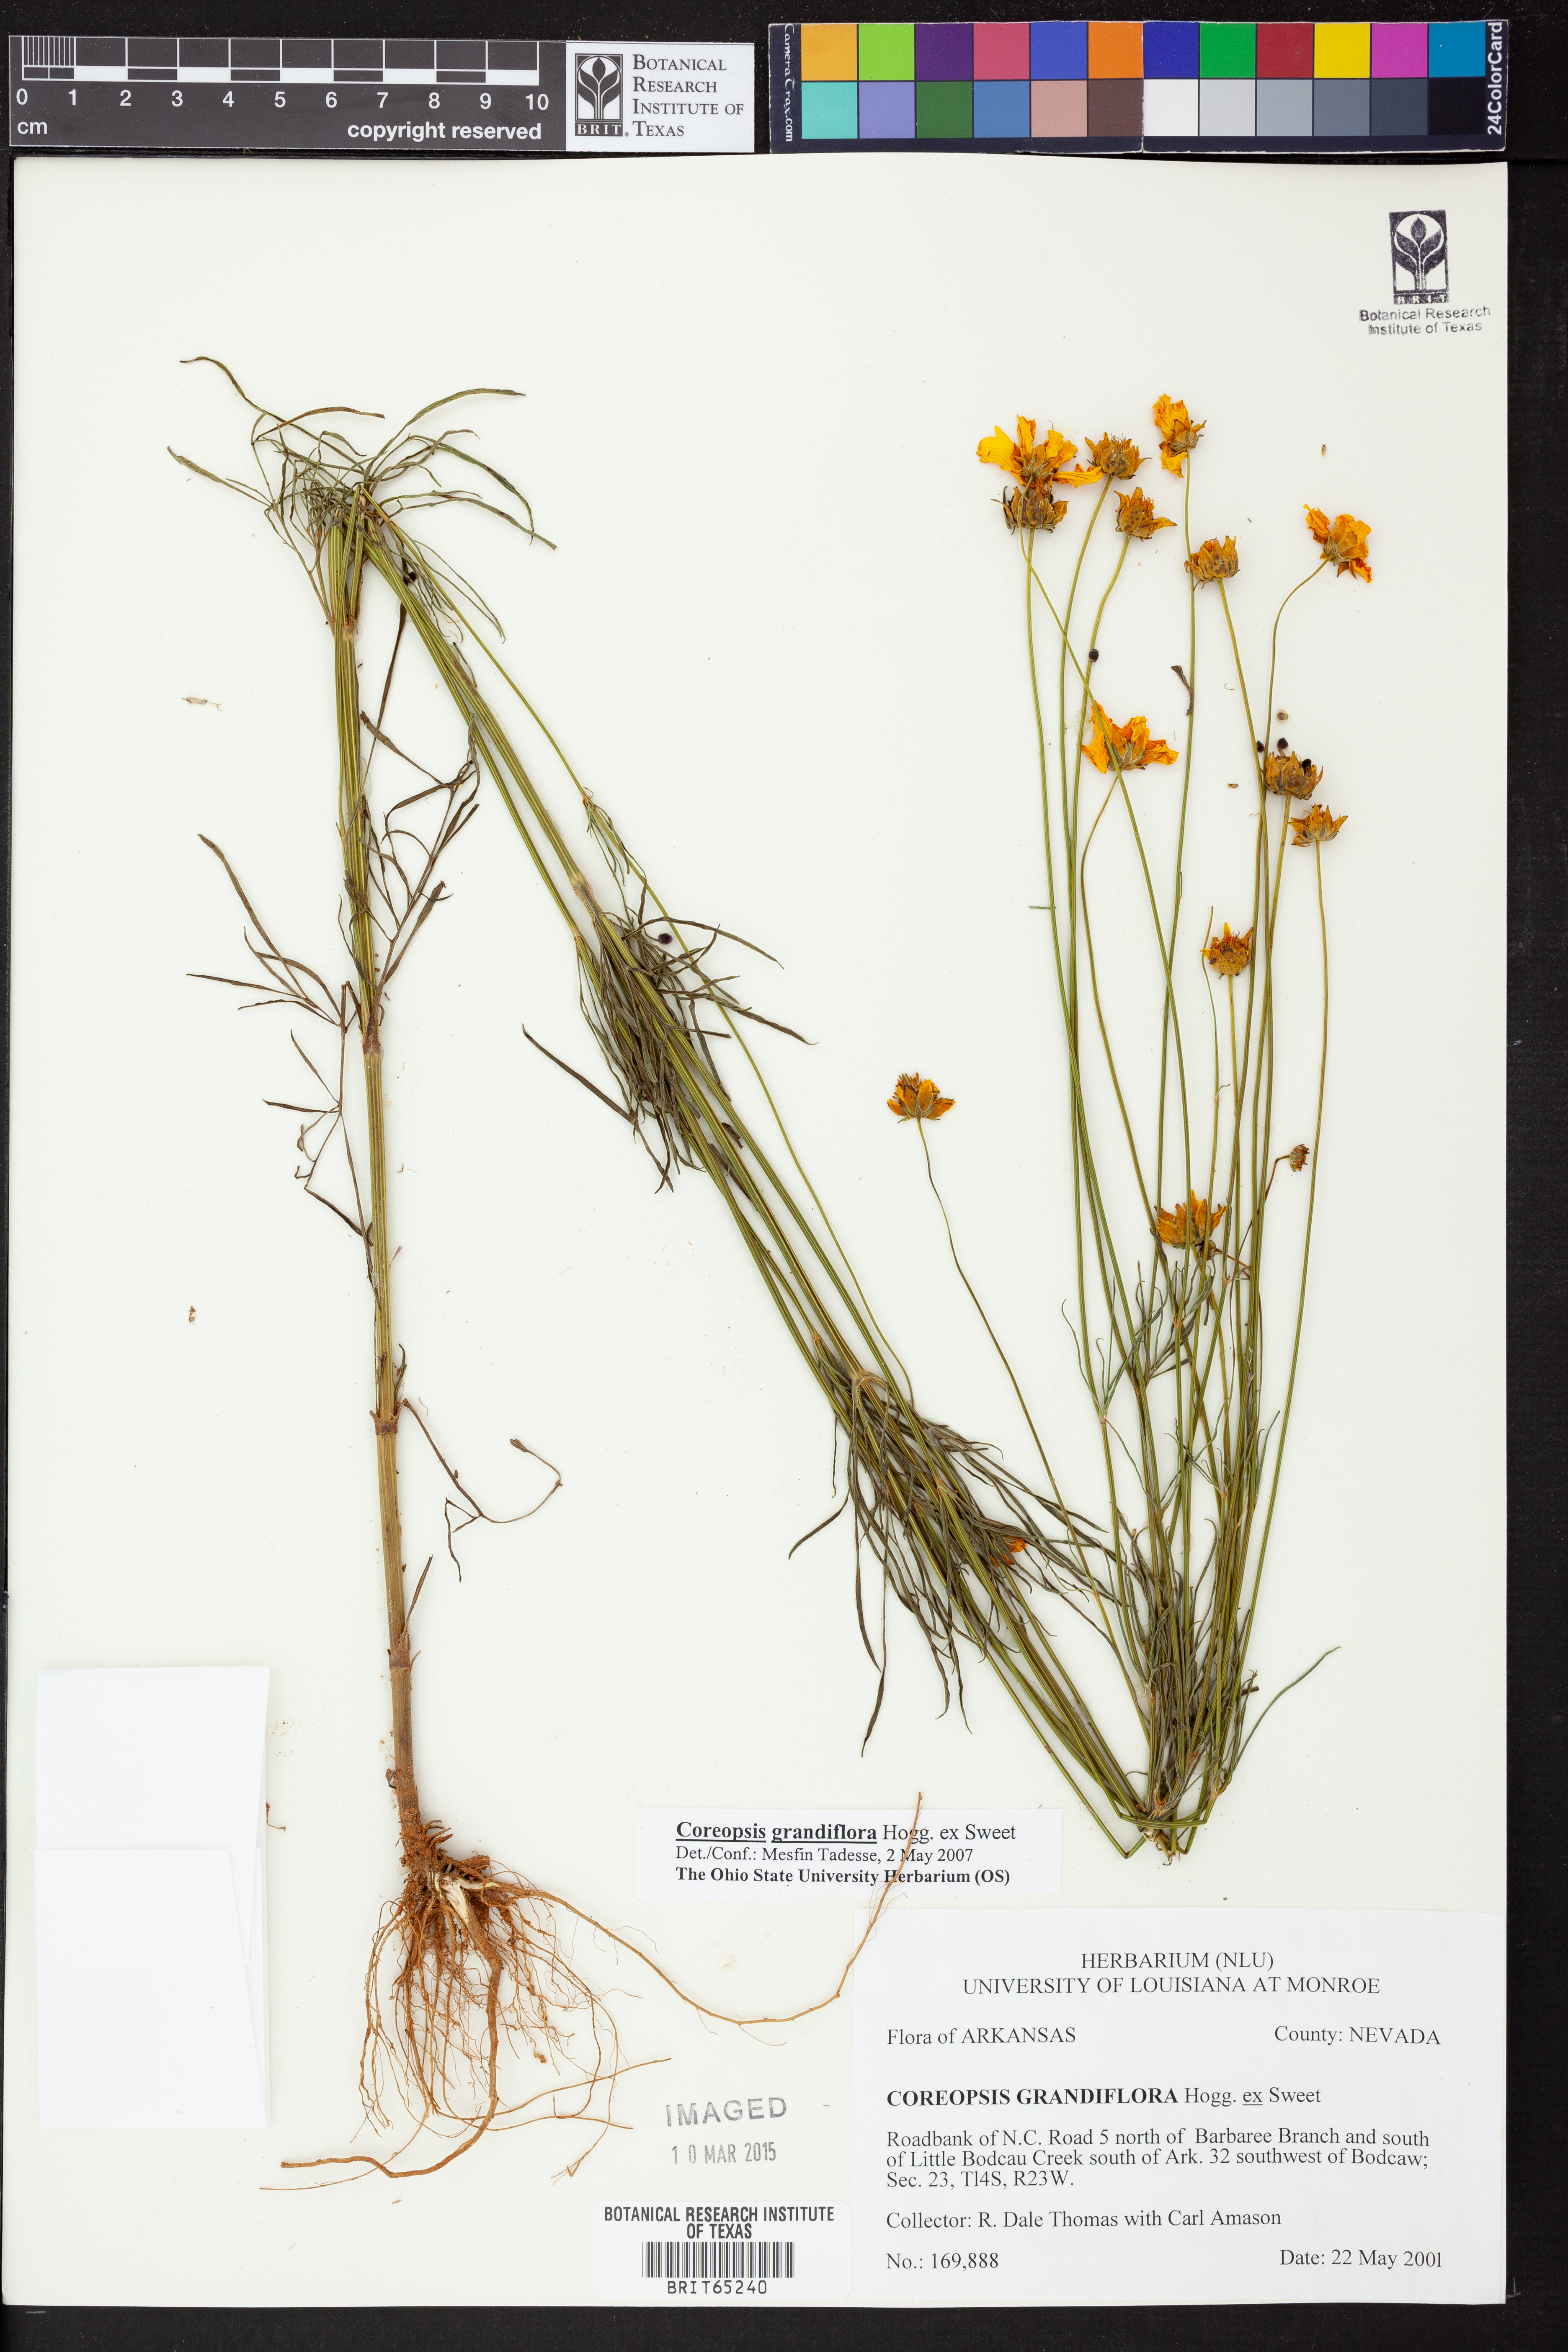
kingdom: Plantae
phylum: Tracheophyta
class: Magnoliopsida
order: Asterales
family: Asteraceae
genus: Coreopsis
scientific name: Coreopsis grandiflora
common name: Large-flowered tickseed
